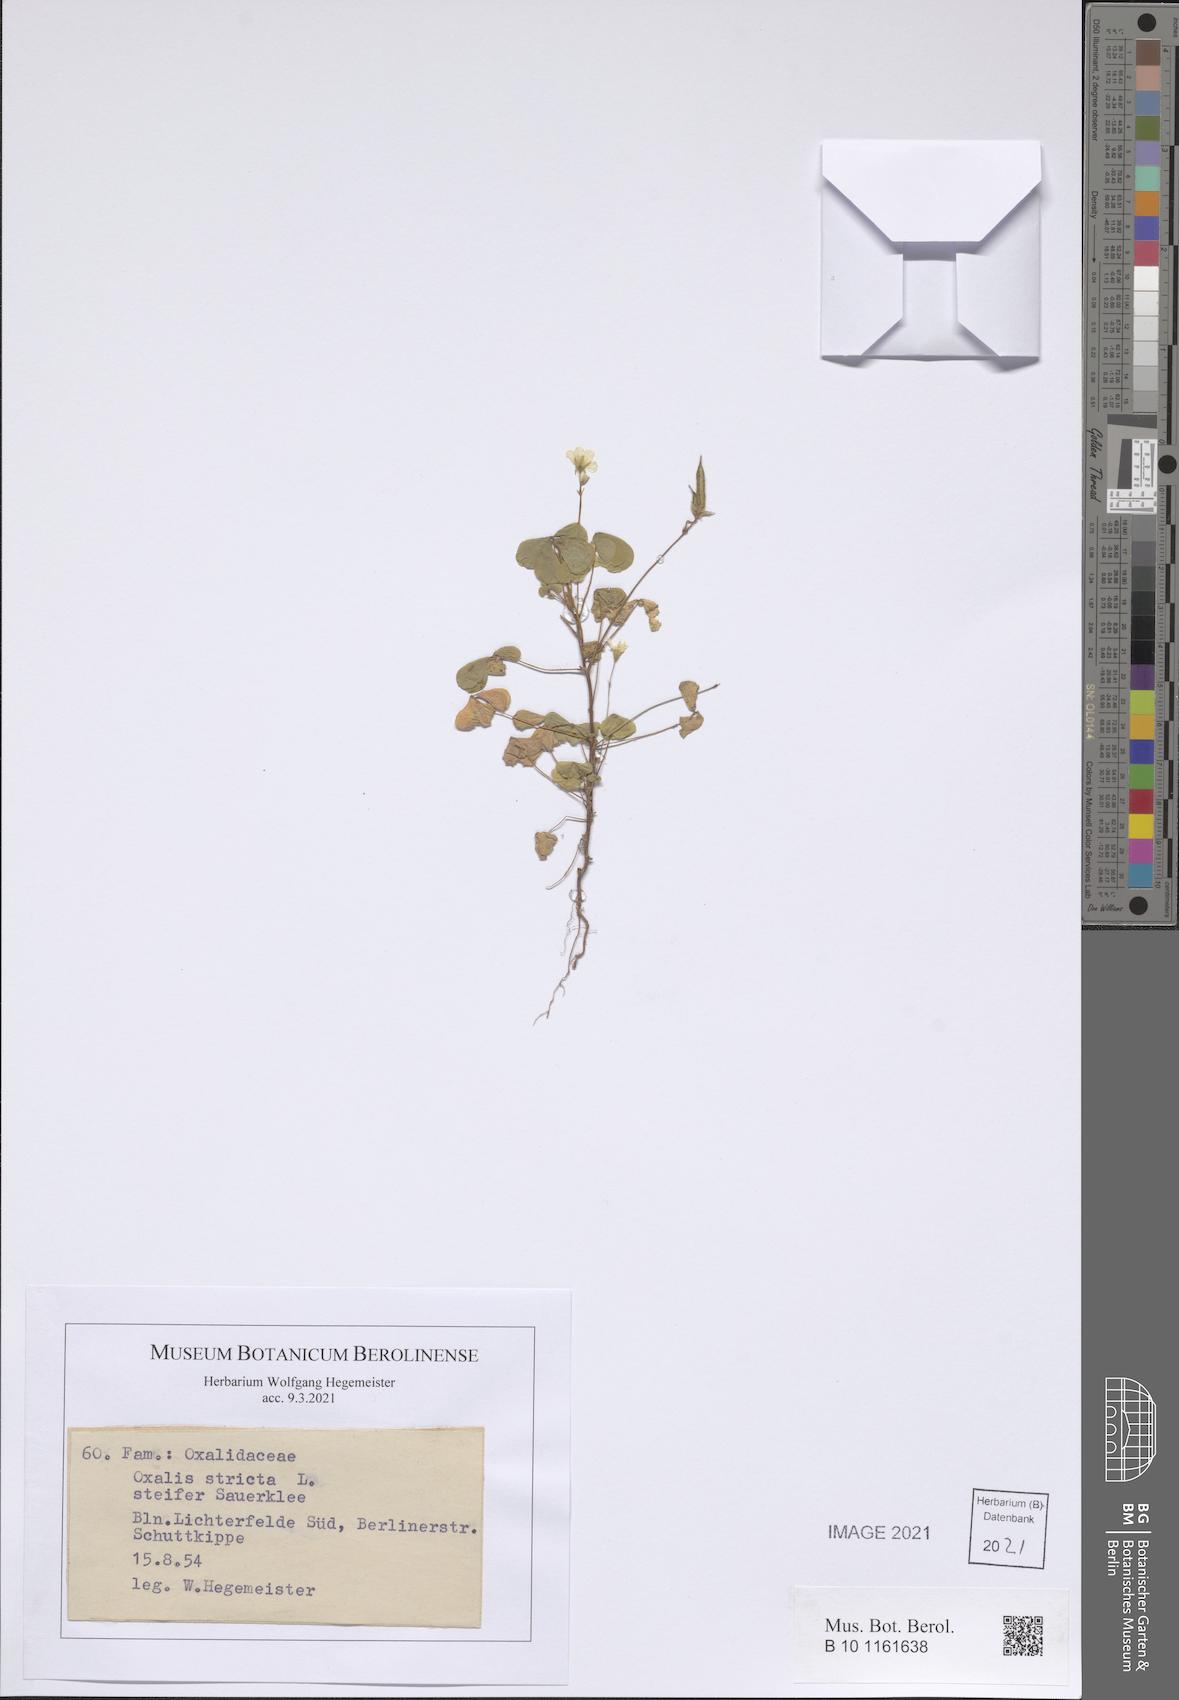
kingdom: Plantae
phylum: Tracheophyta
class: Magnoliopsida
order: Oxalidales
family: Oxalidaceae
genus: Oxalis
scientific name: Oxalis stricta
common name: Upright yellow-sorrel
